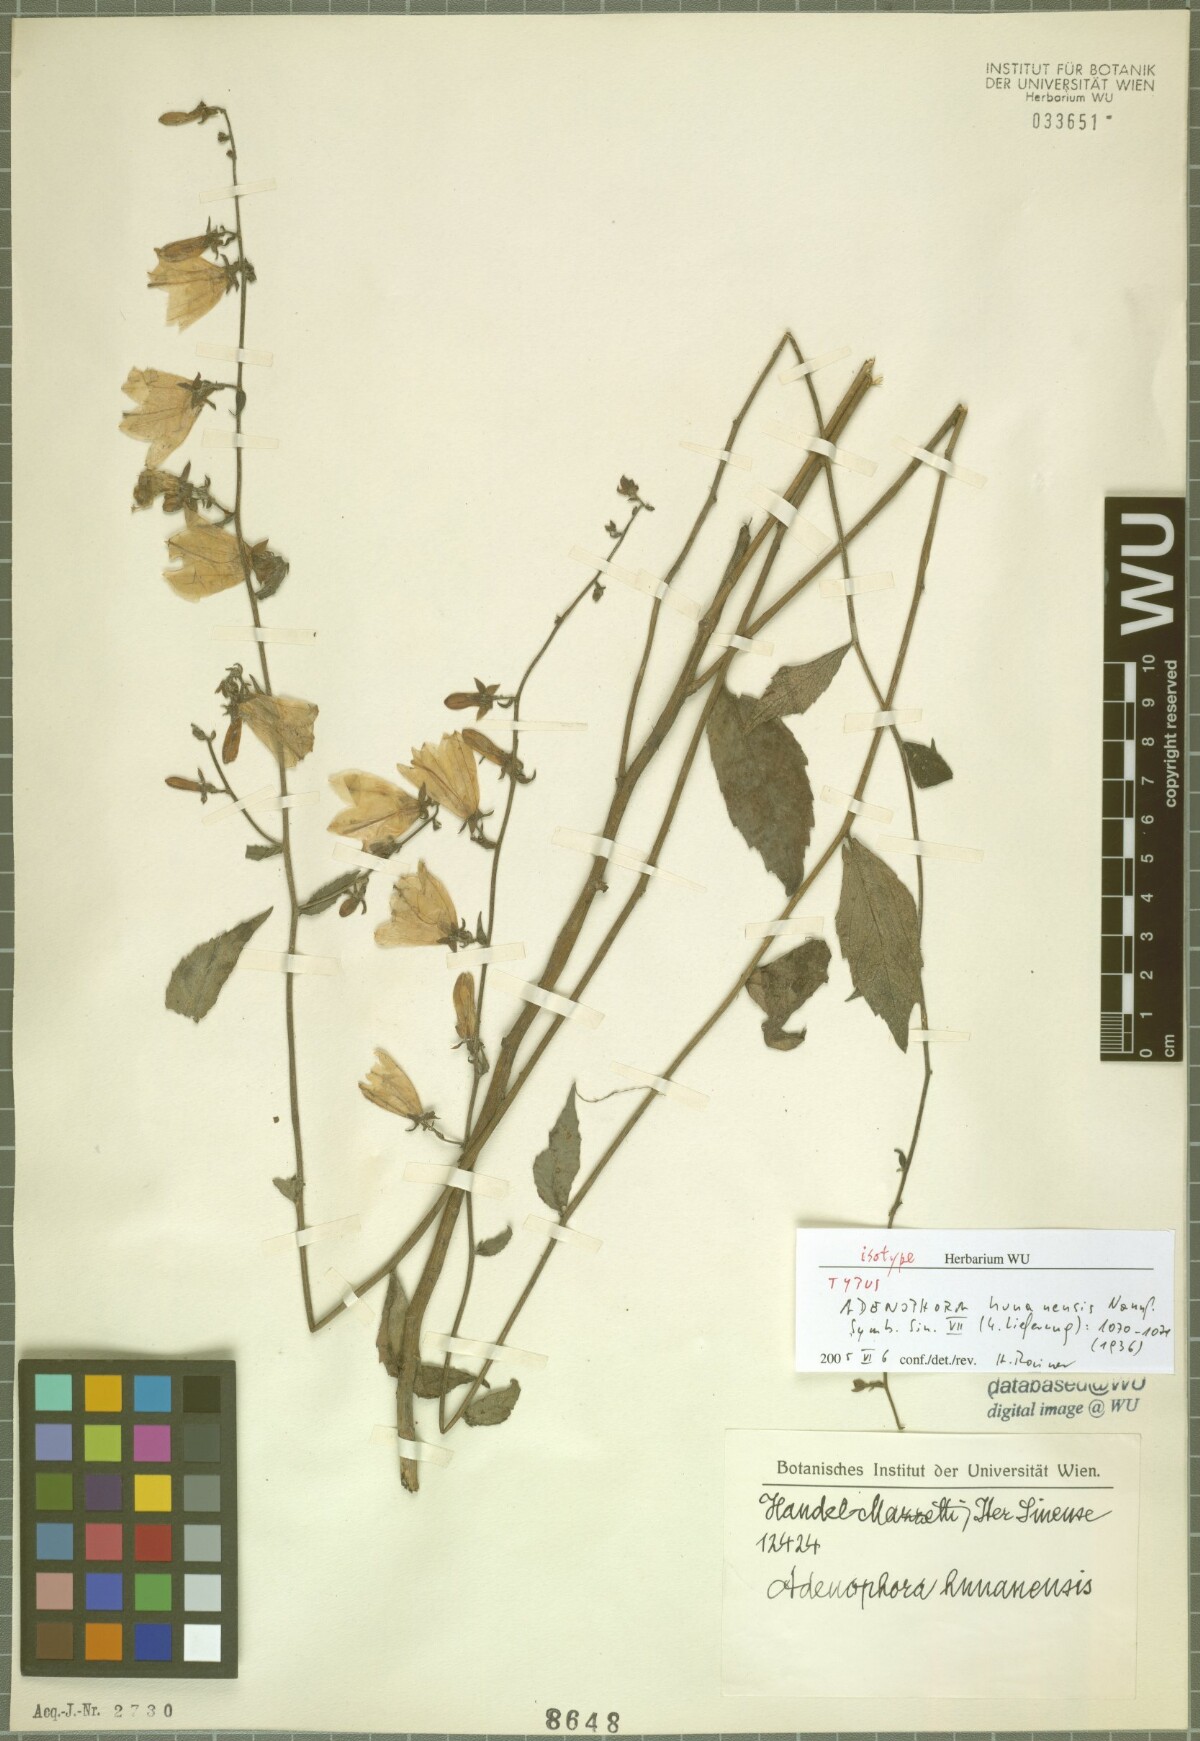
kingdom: Plantae
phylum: Tracheophyta
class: Magnoliopsida
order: Asterales
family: Campanulaceae
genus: Adenophora
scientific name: Adenophora petiolata
